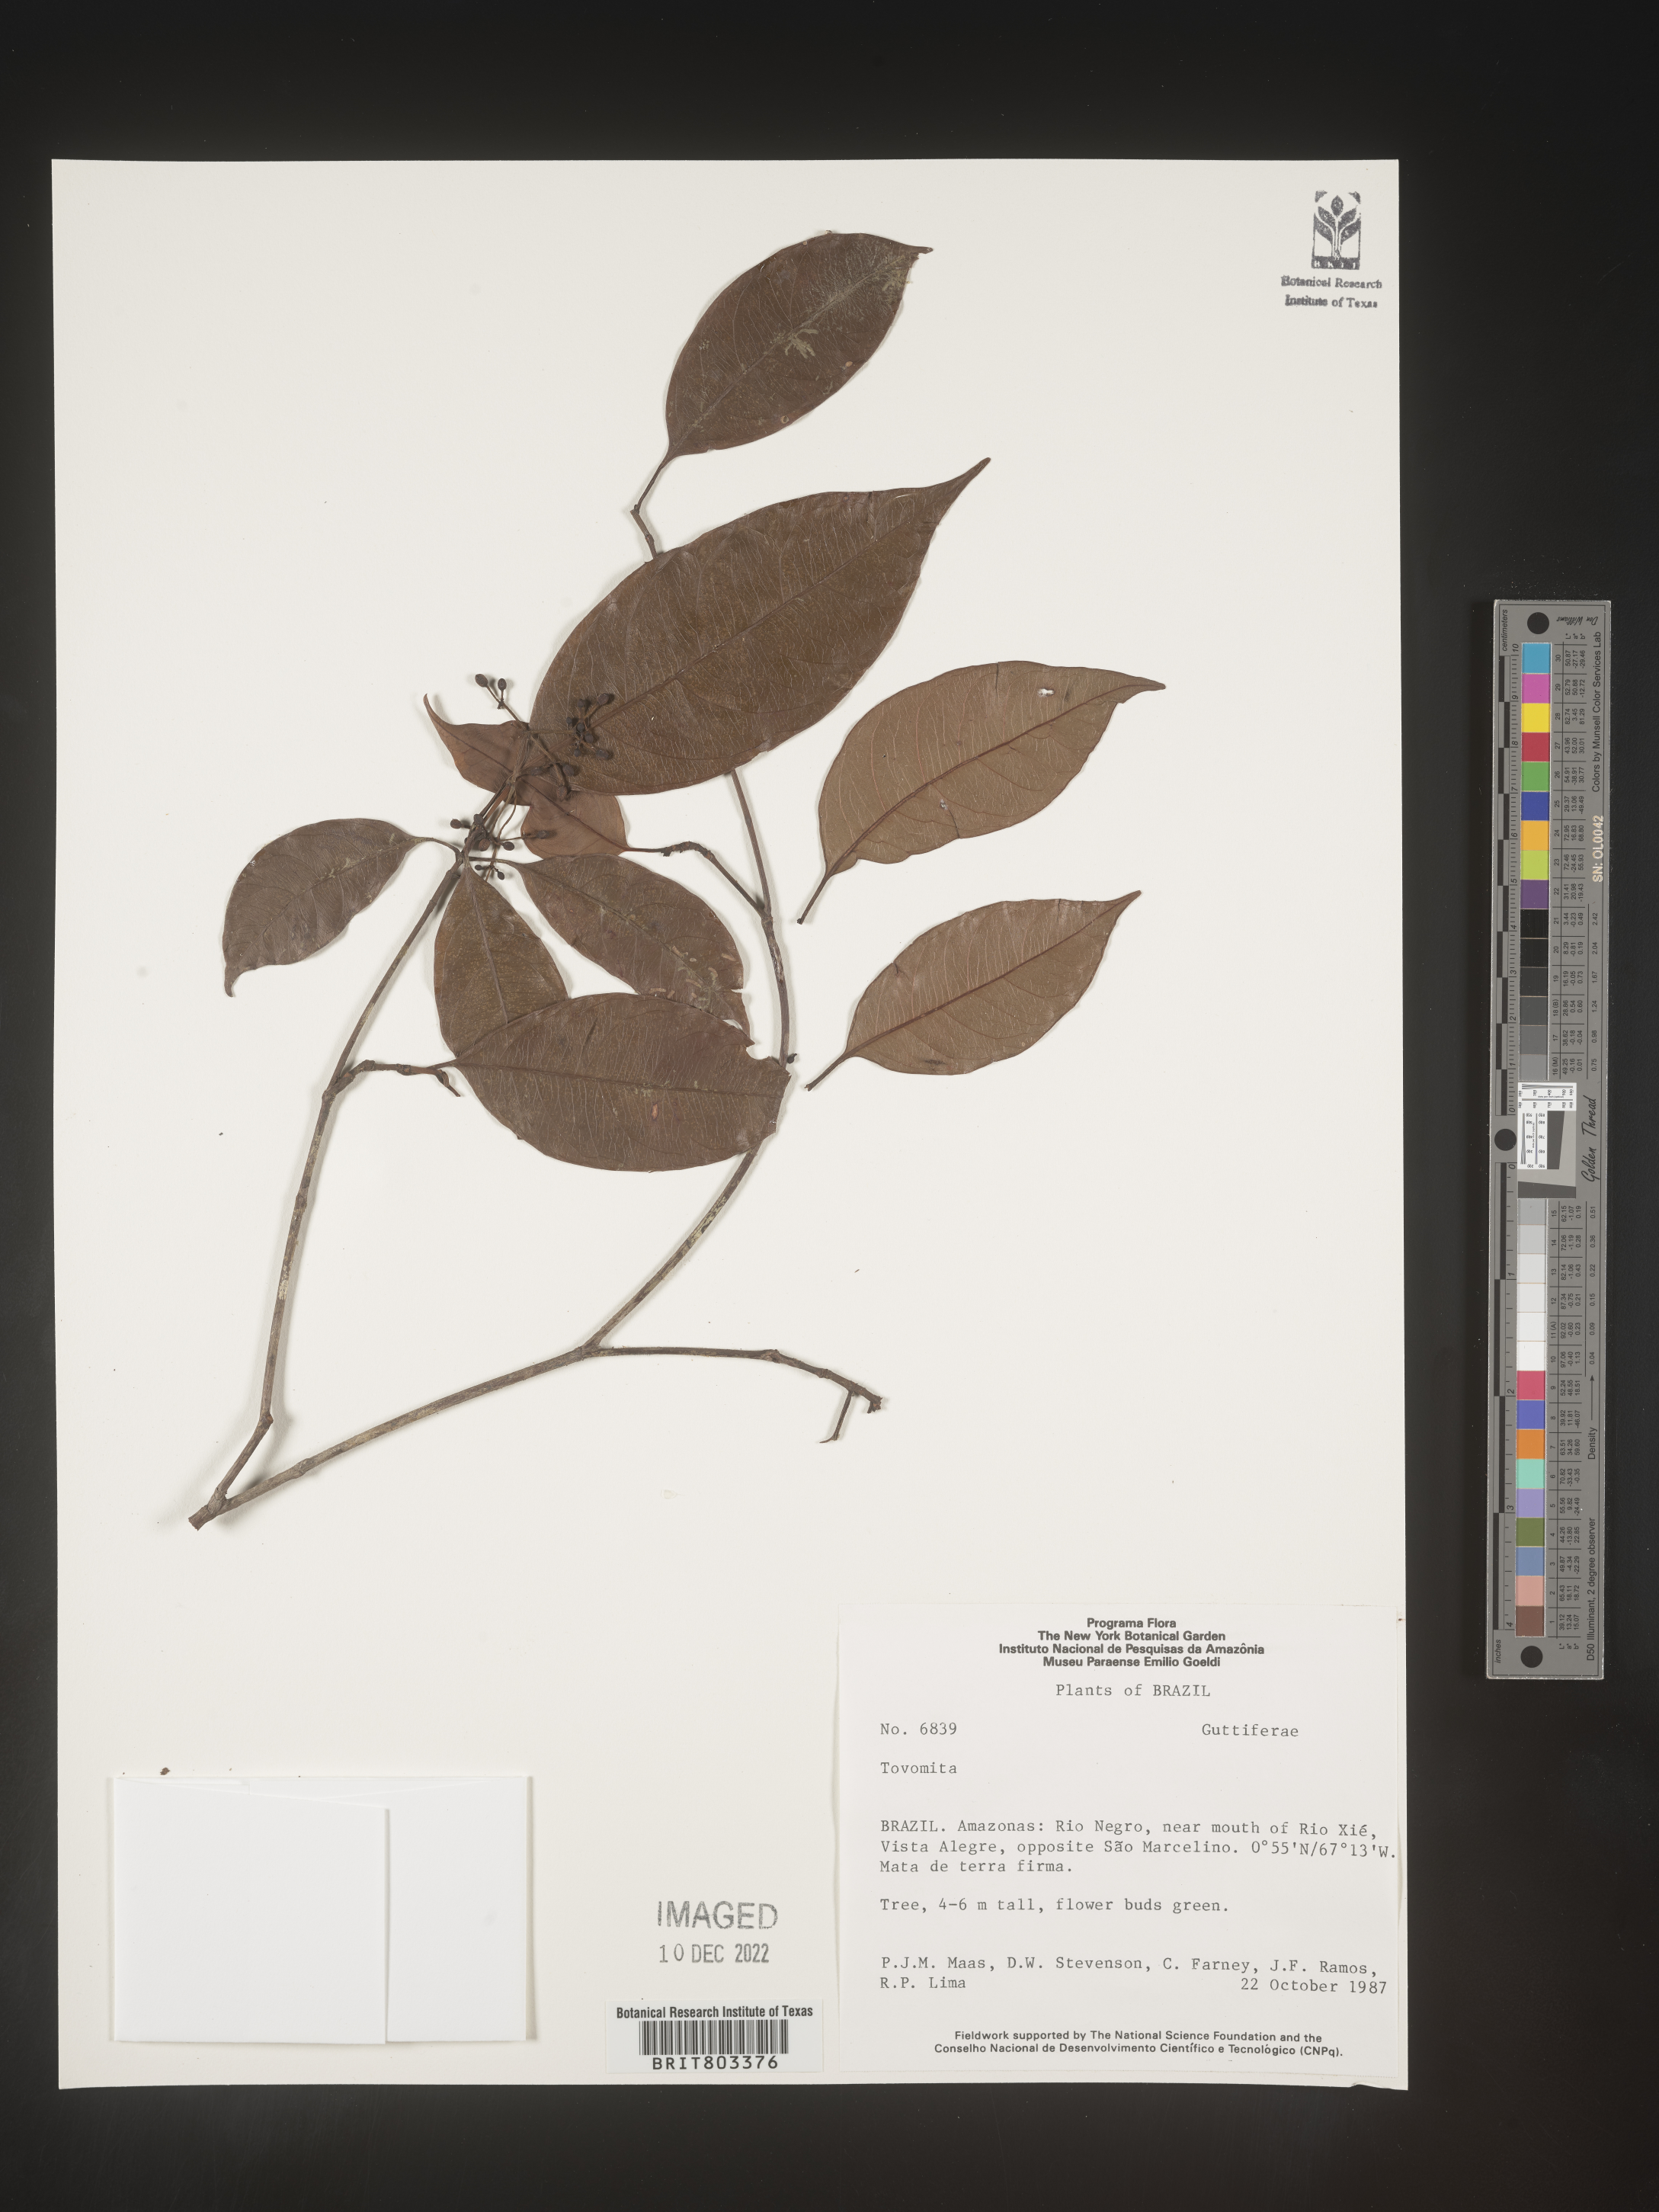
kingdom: Plantae
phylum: Tracheophyta
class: Magnoliopsida
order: Malpighiales
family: Clusiaceae
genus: Tovomita
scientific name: Tovomita
